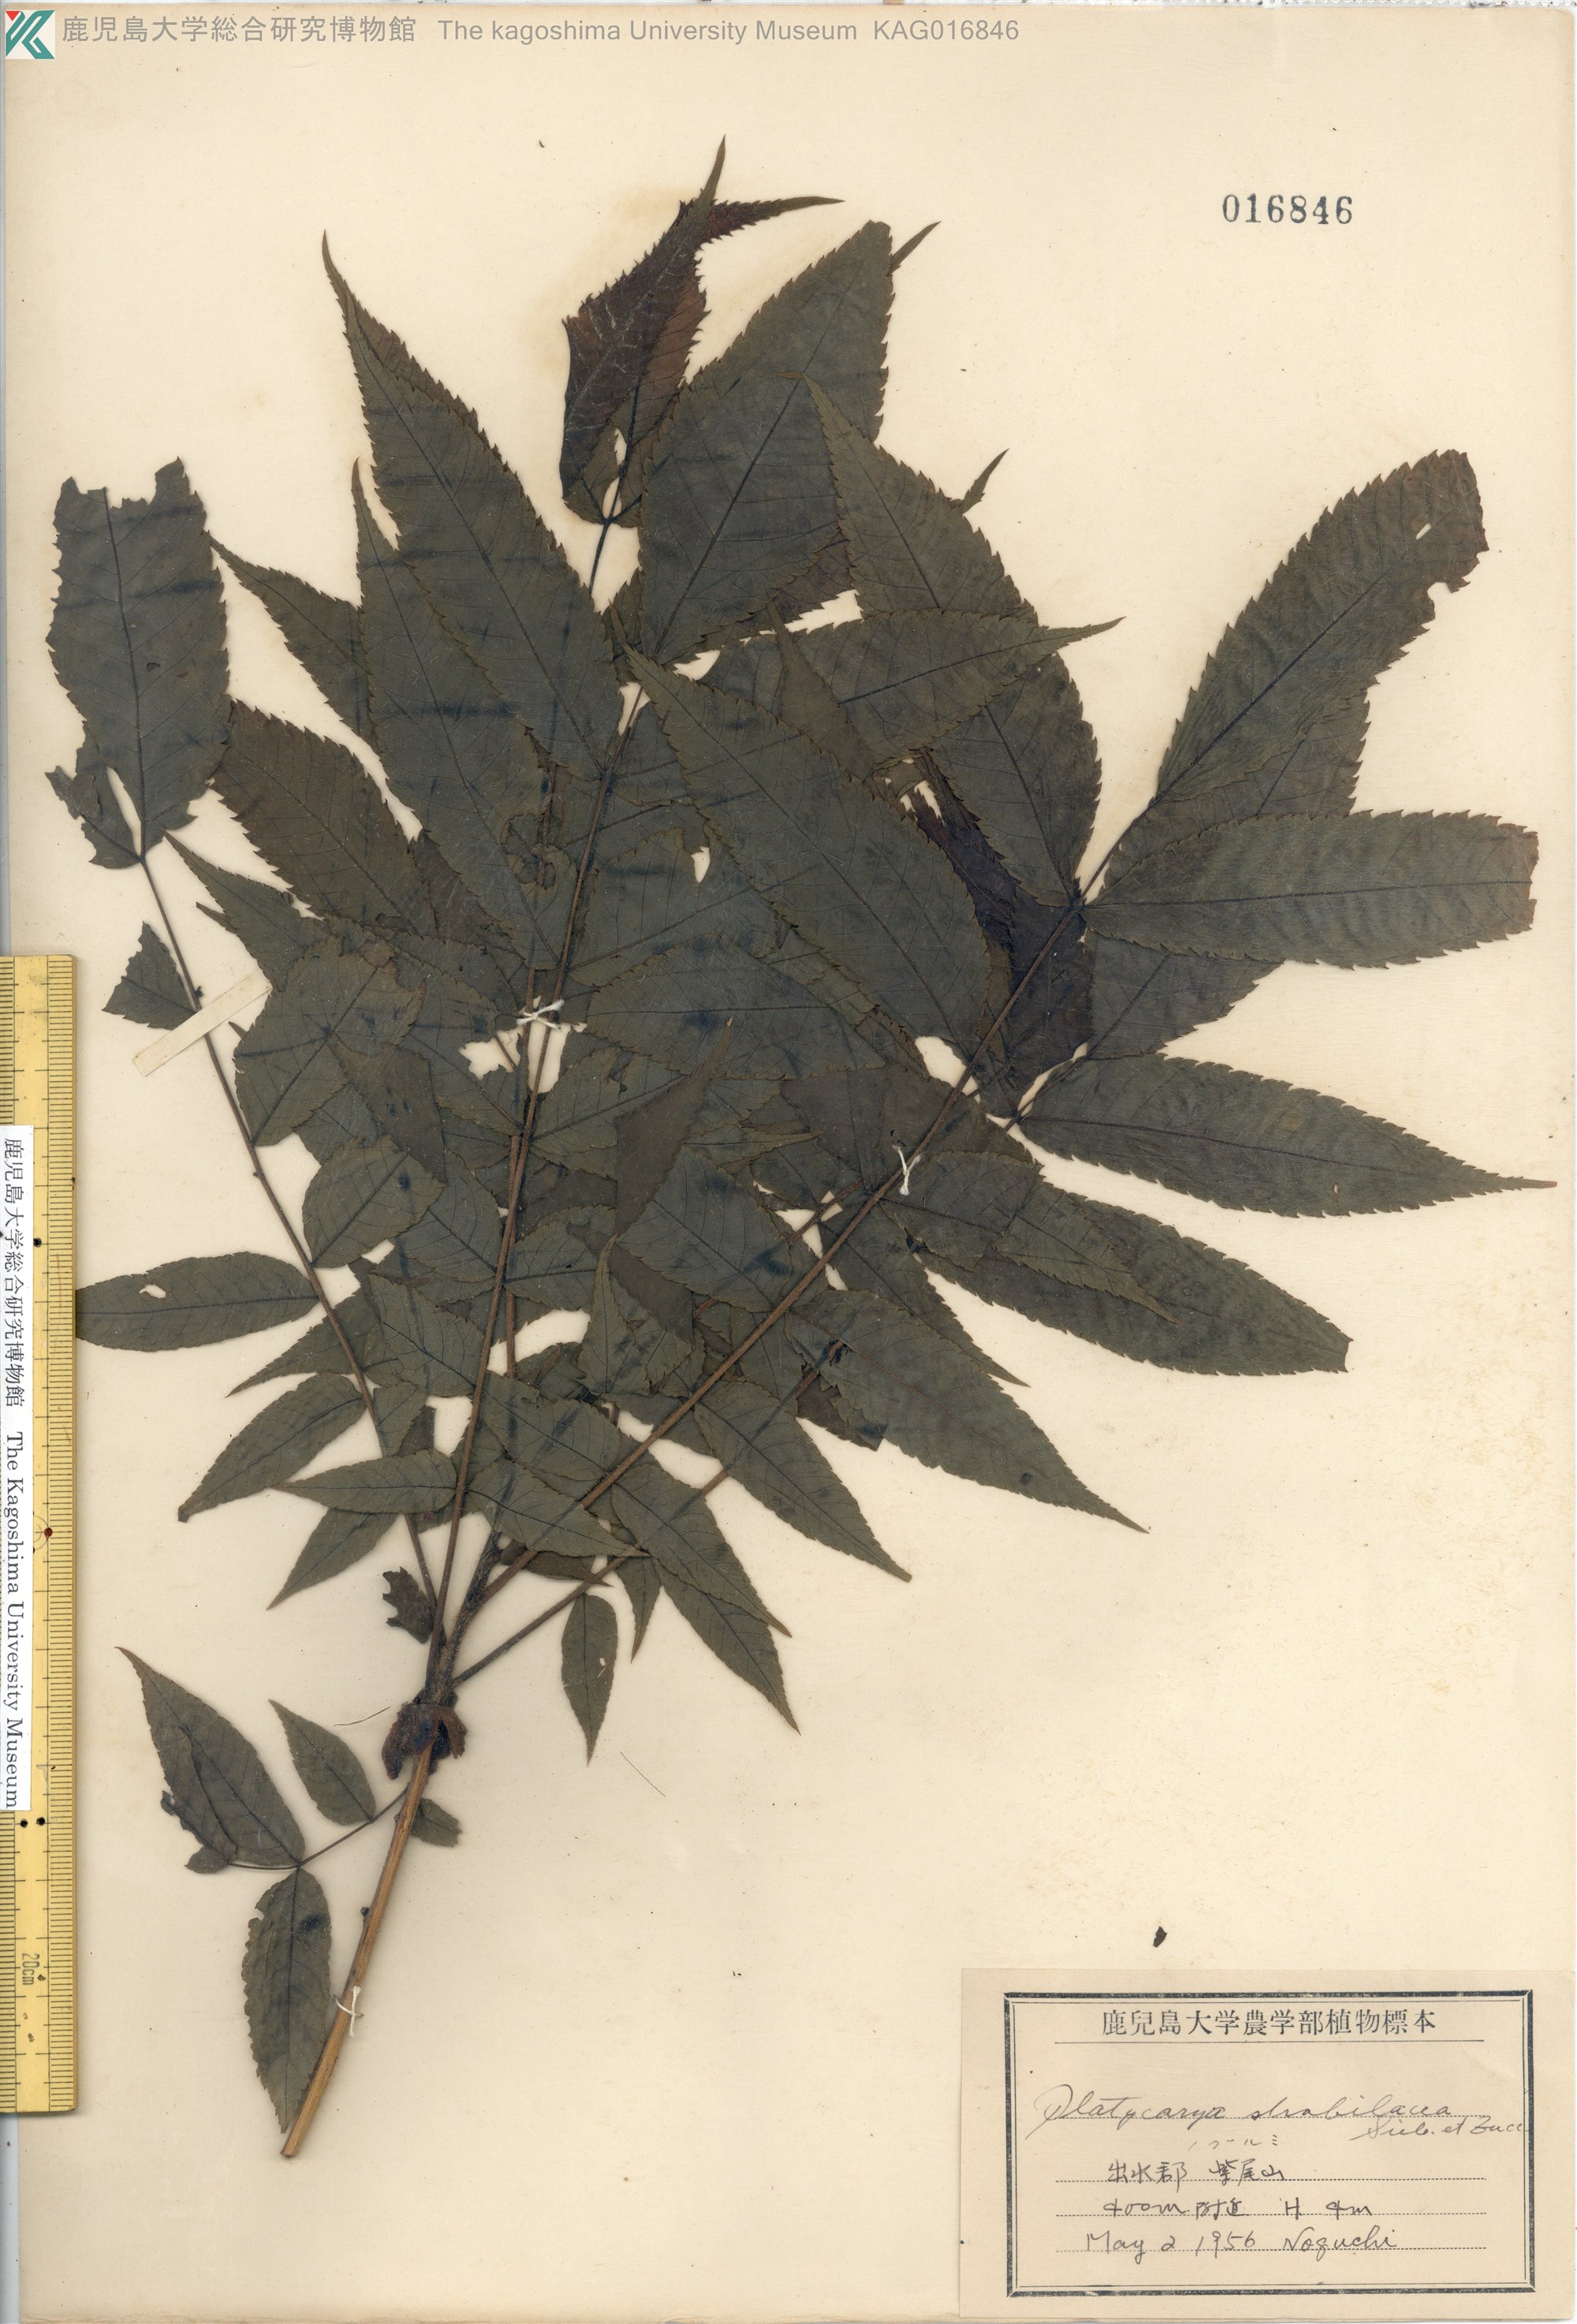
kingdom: Plantae
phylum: Tracheophyta
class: Magnoliopsida
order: Fagales
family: Juglandaceae
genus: Platycarya
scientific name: Platycarya strobilacea
